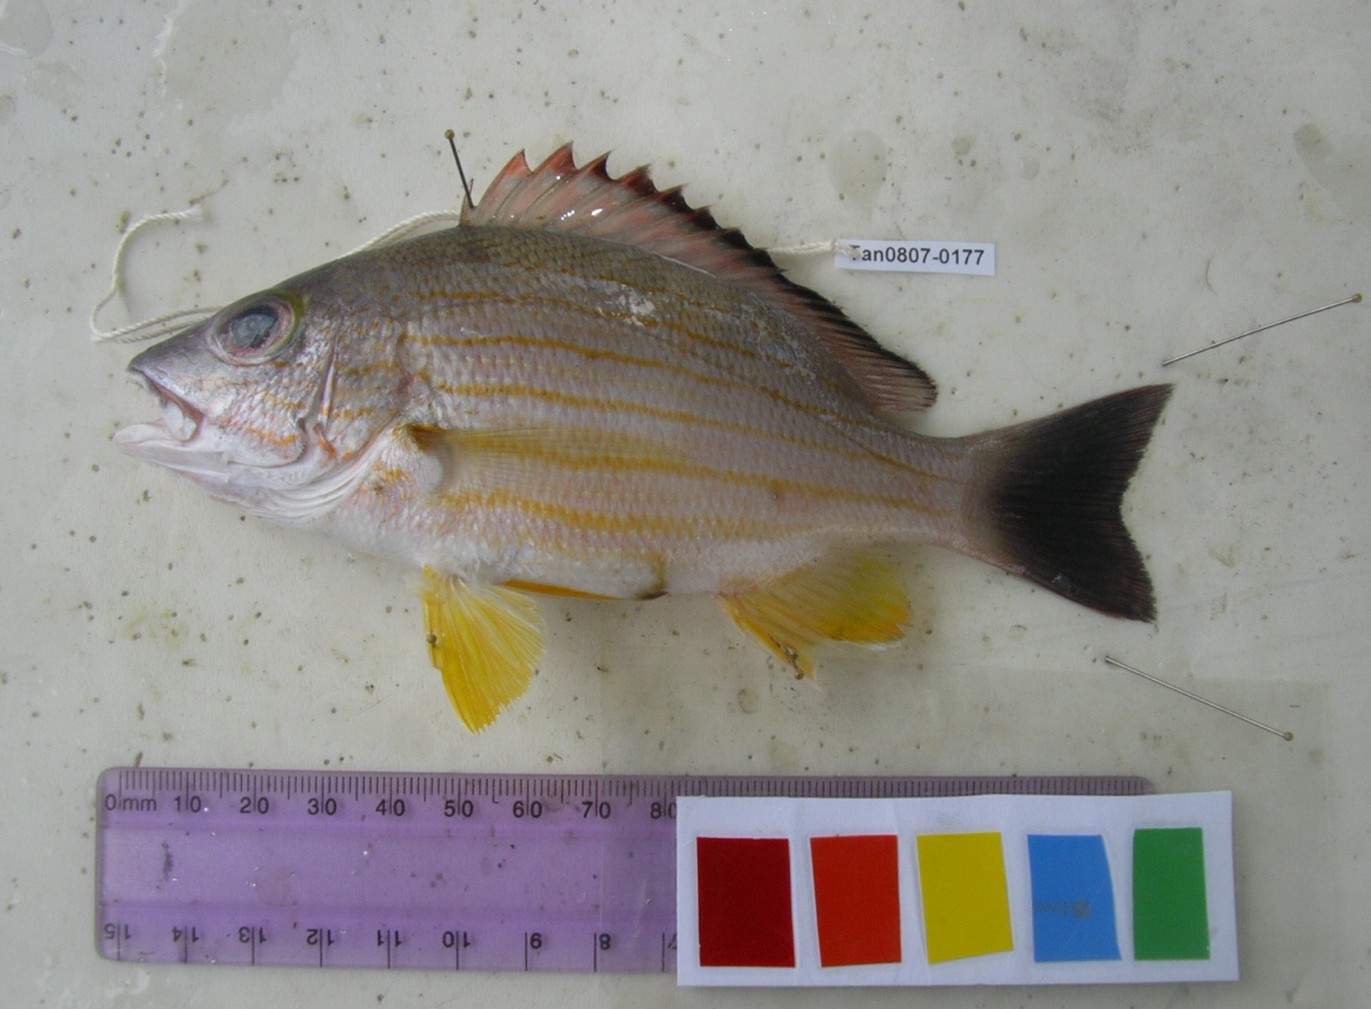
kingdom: Animalia
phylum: Chordata
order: Perciformes
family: Lutjanidae
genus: Lutjanus
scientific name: Lutjanus fulvus
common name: Blacktail snapper
